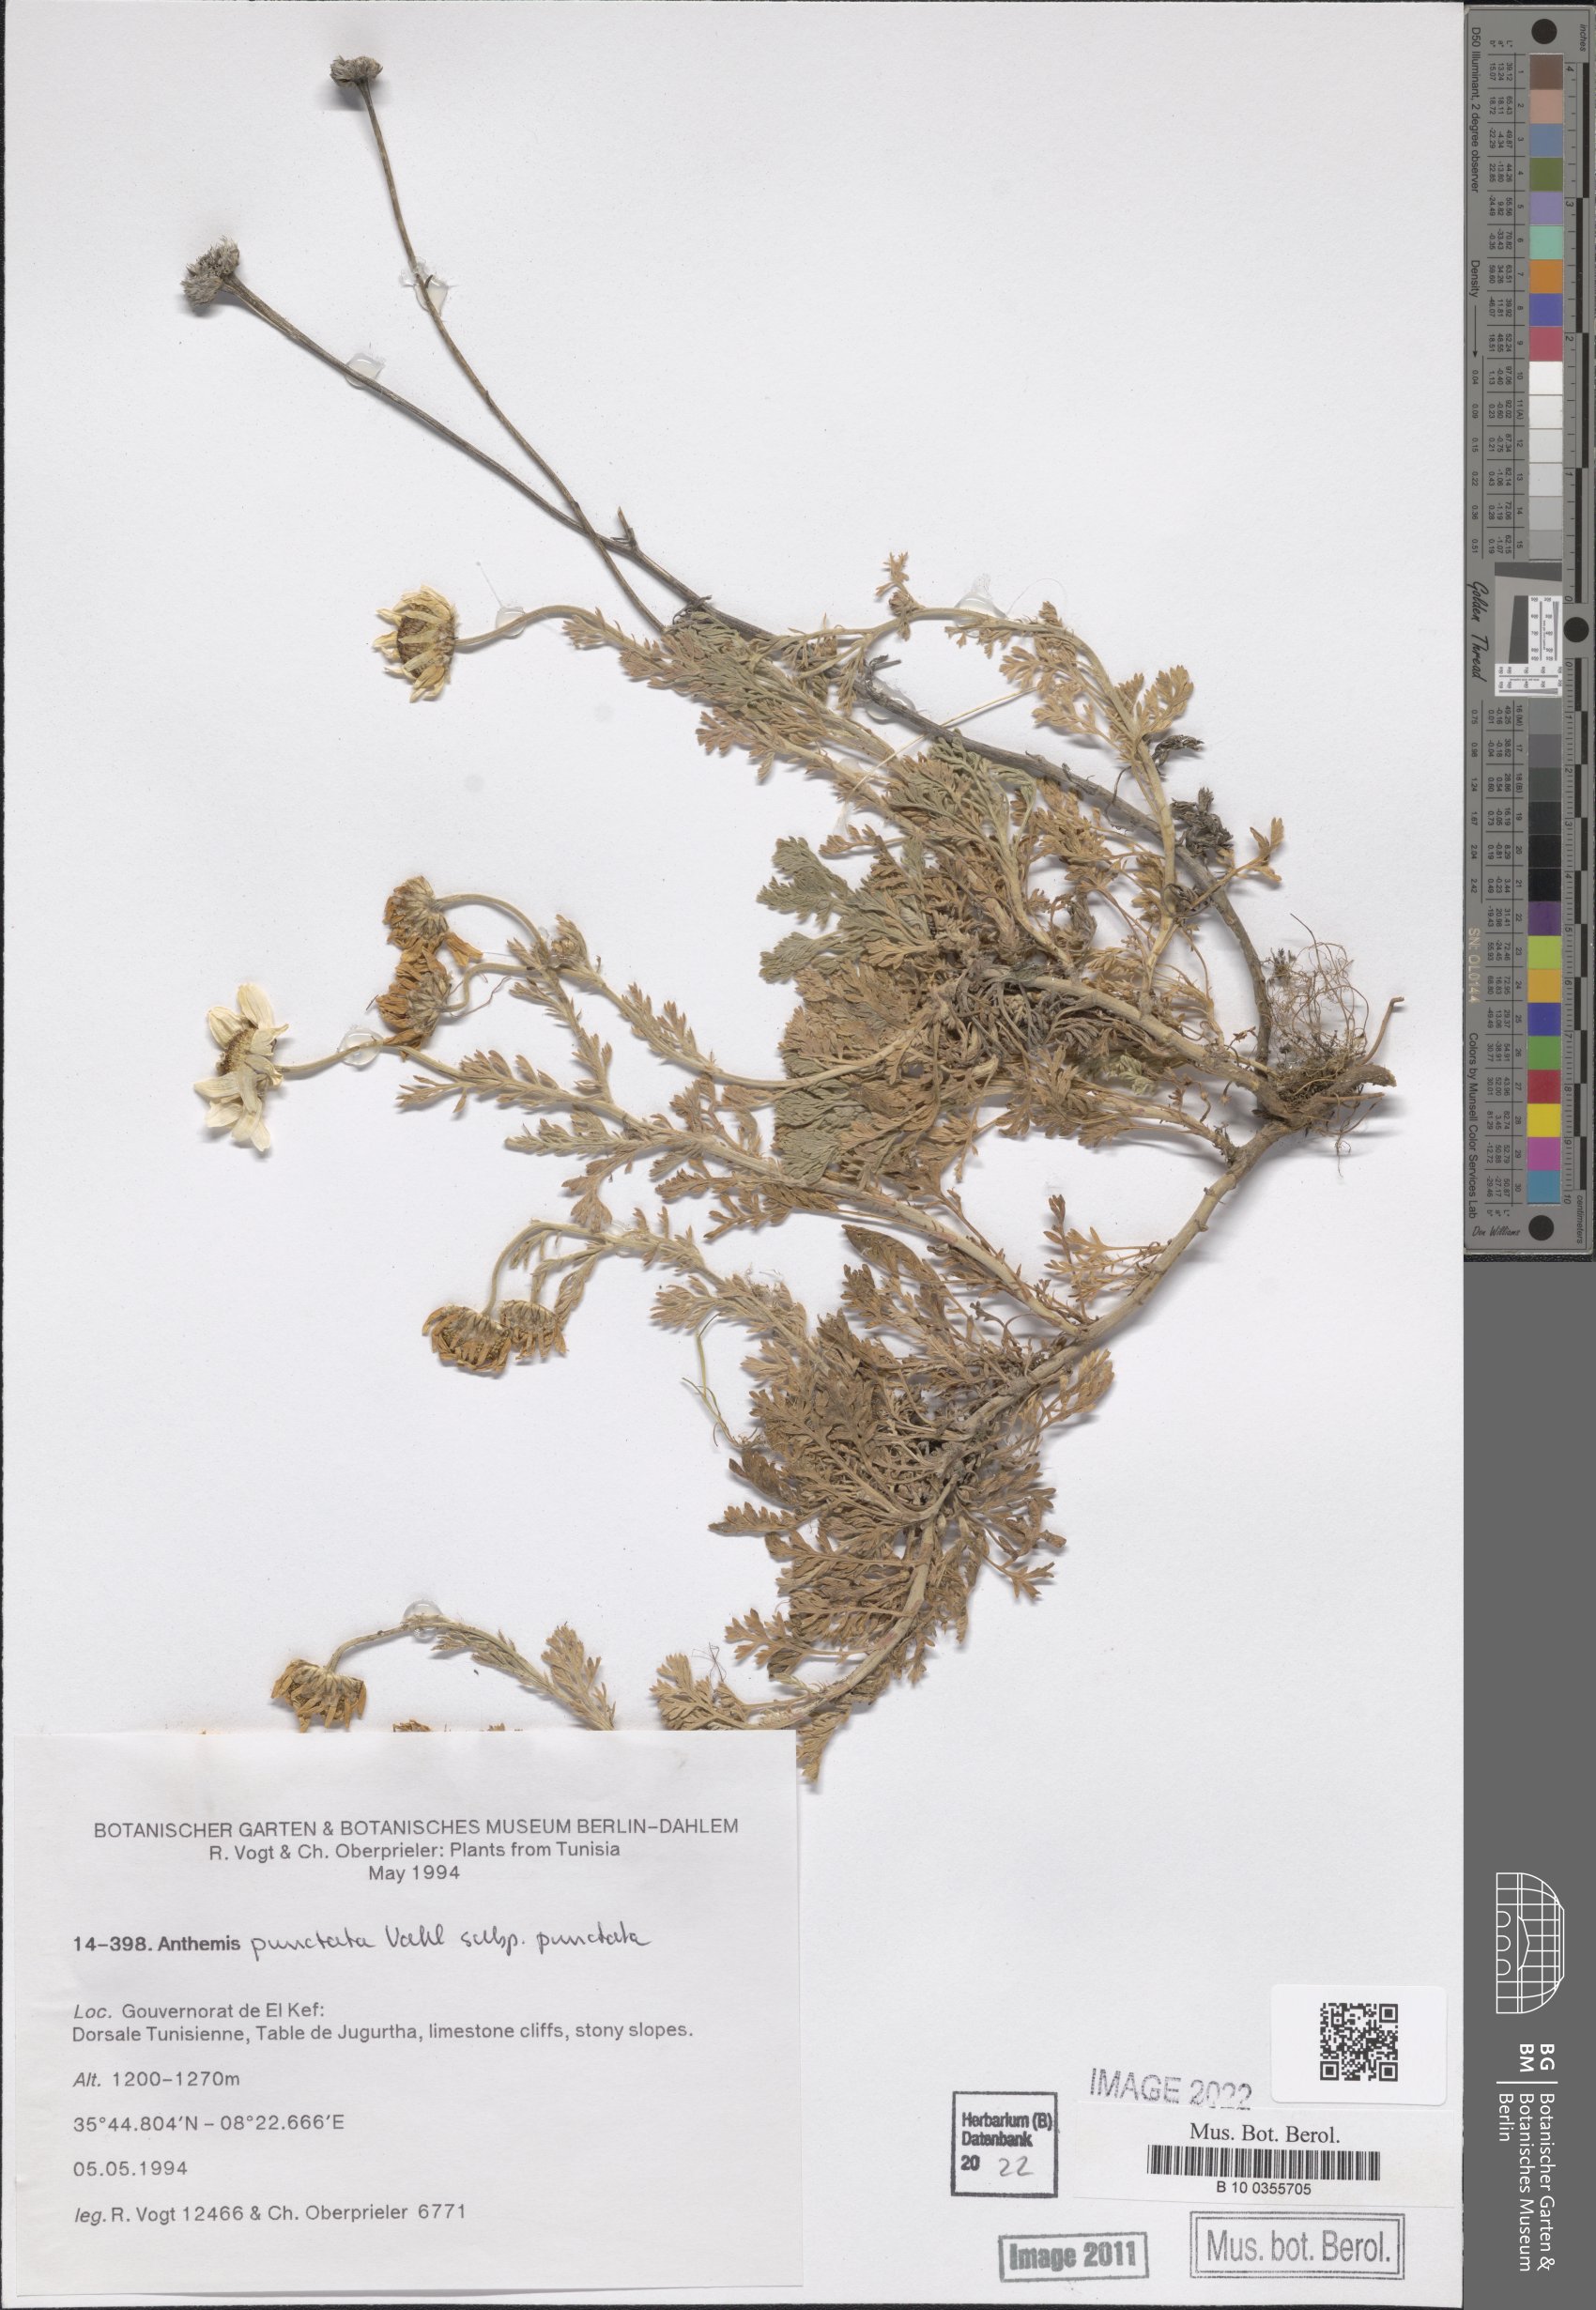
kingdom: Plantae
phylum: Tracheophyta
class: Magnoliopsida
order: Asterales
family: Asteraceae
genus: Anthemis
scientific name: Anthemis punctata
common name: Sicilian chamomile
